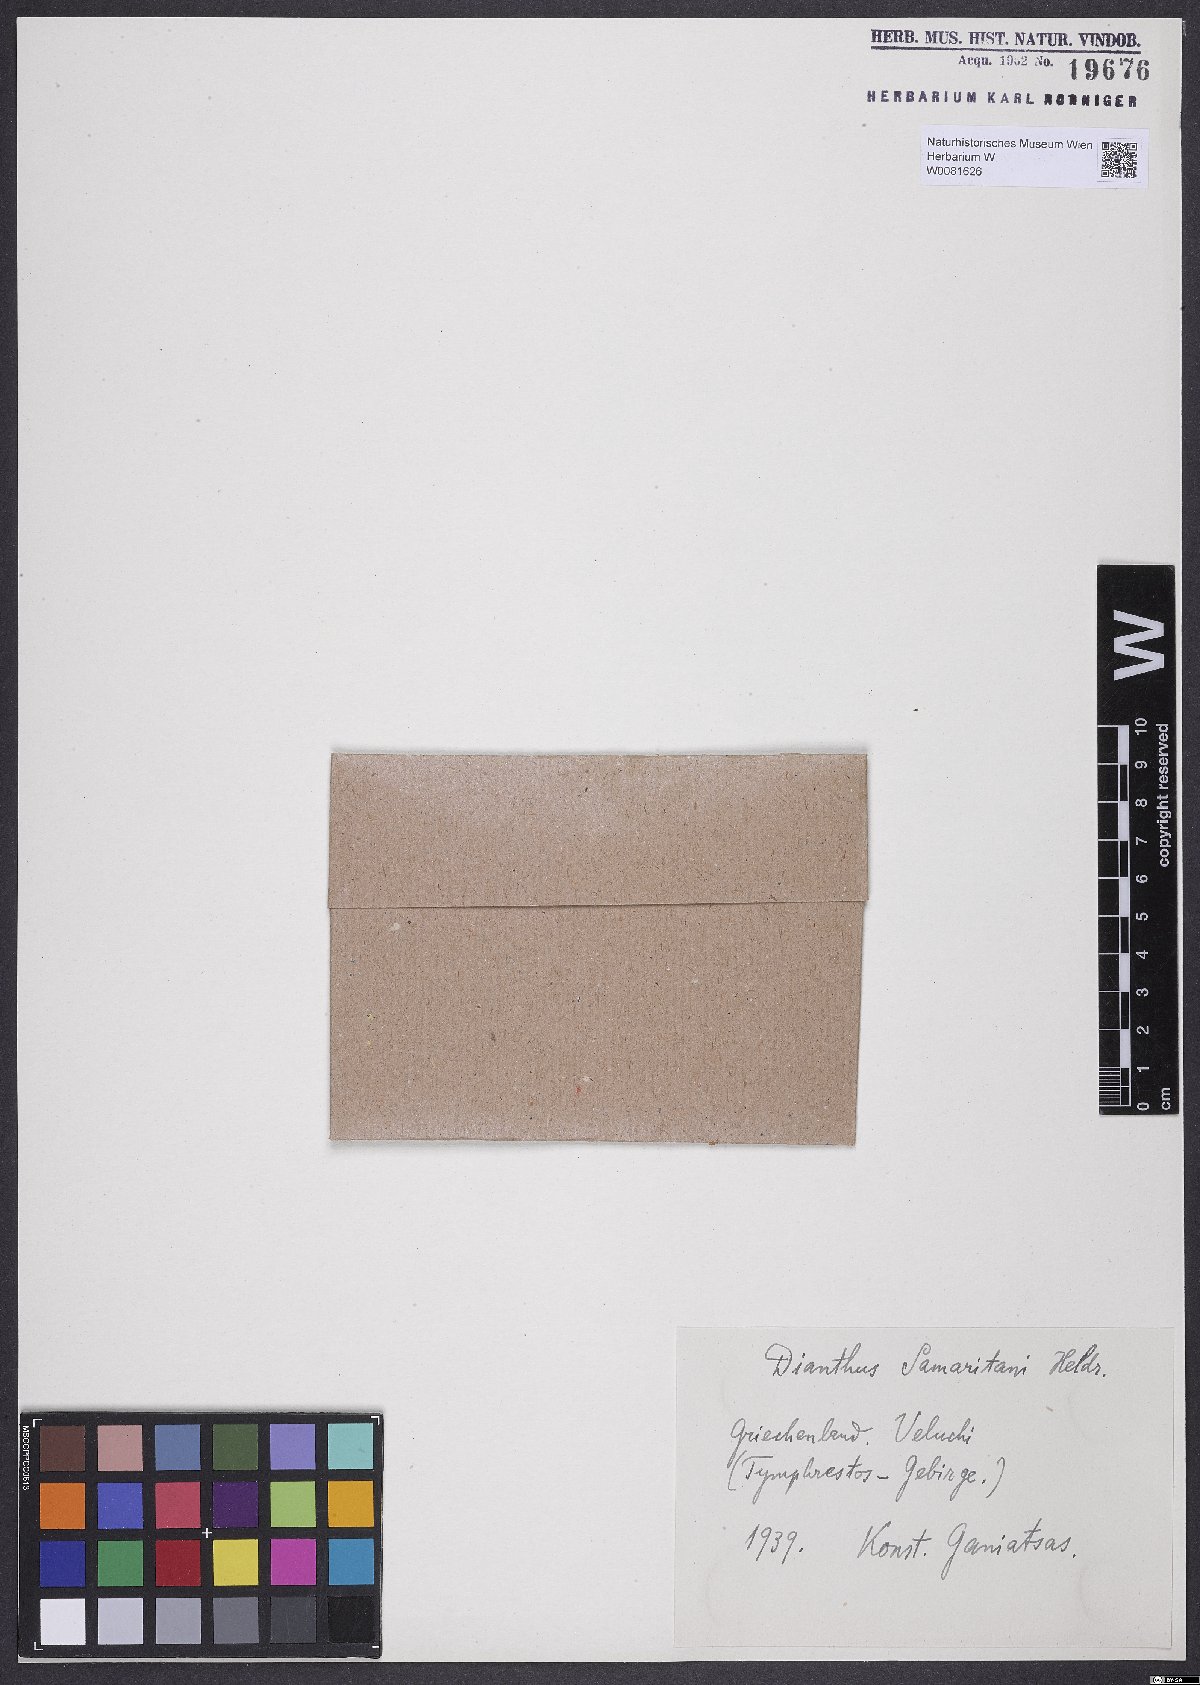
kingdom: Plantae
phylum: Tracheophyta
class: Magnoliopsida
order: Caryophyllales
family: Caryophyllaceae
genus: Dianthus
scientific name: Dianthus biflorus
